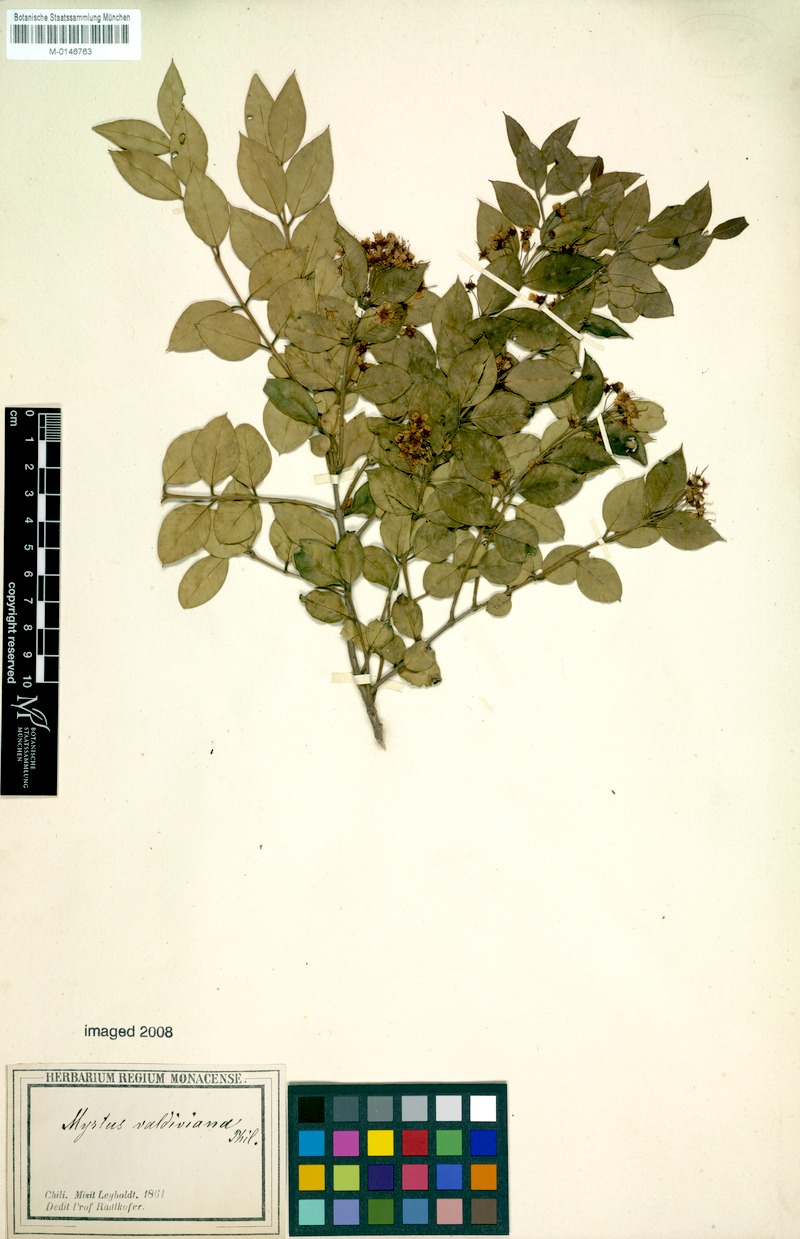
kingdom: Plantae
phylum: Tracheophyta
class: Magnoliopsida
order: Myrtales
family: Myrtaceae
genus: Amomyrtus
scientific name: Amomyrtus luma
